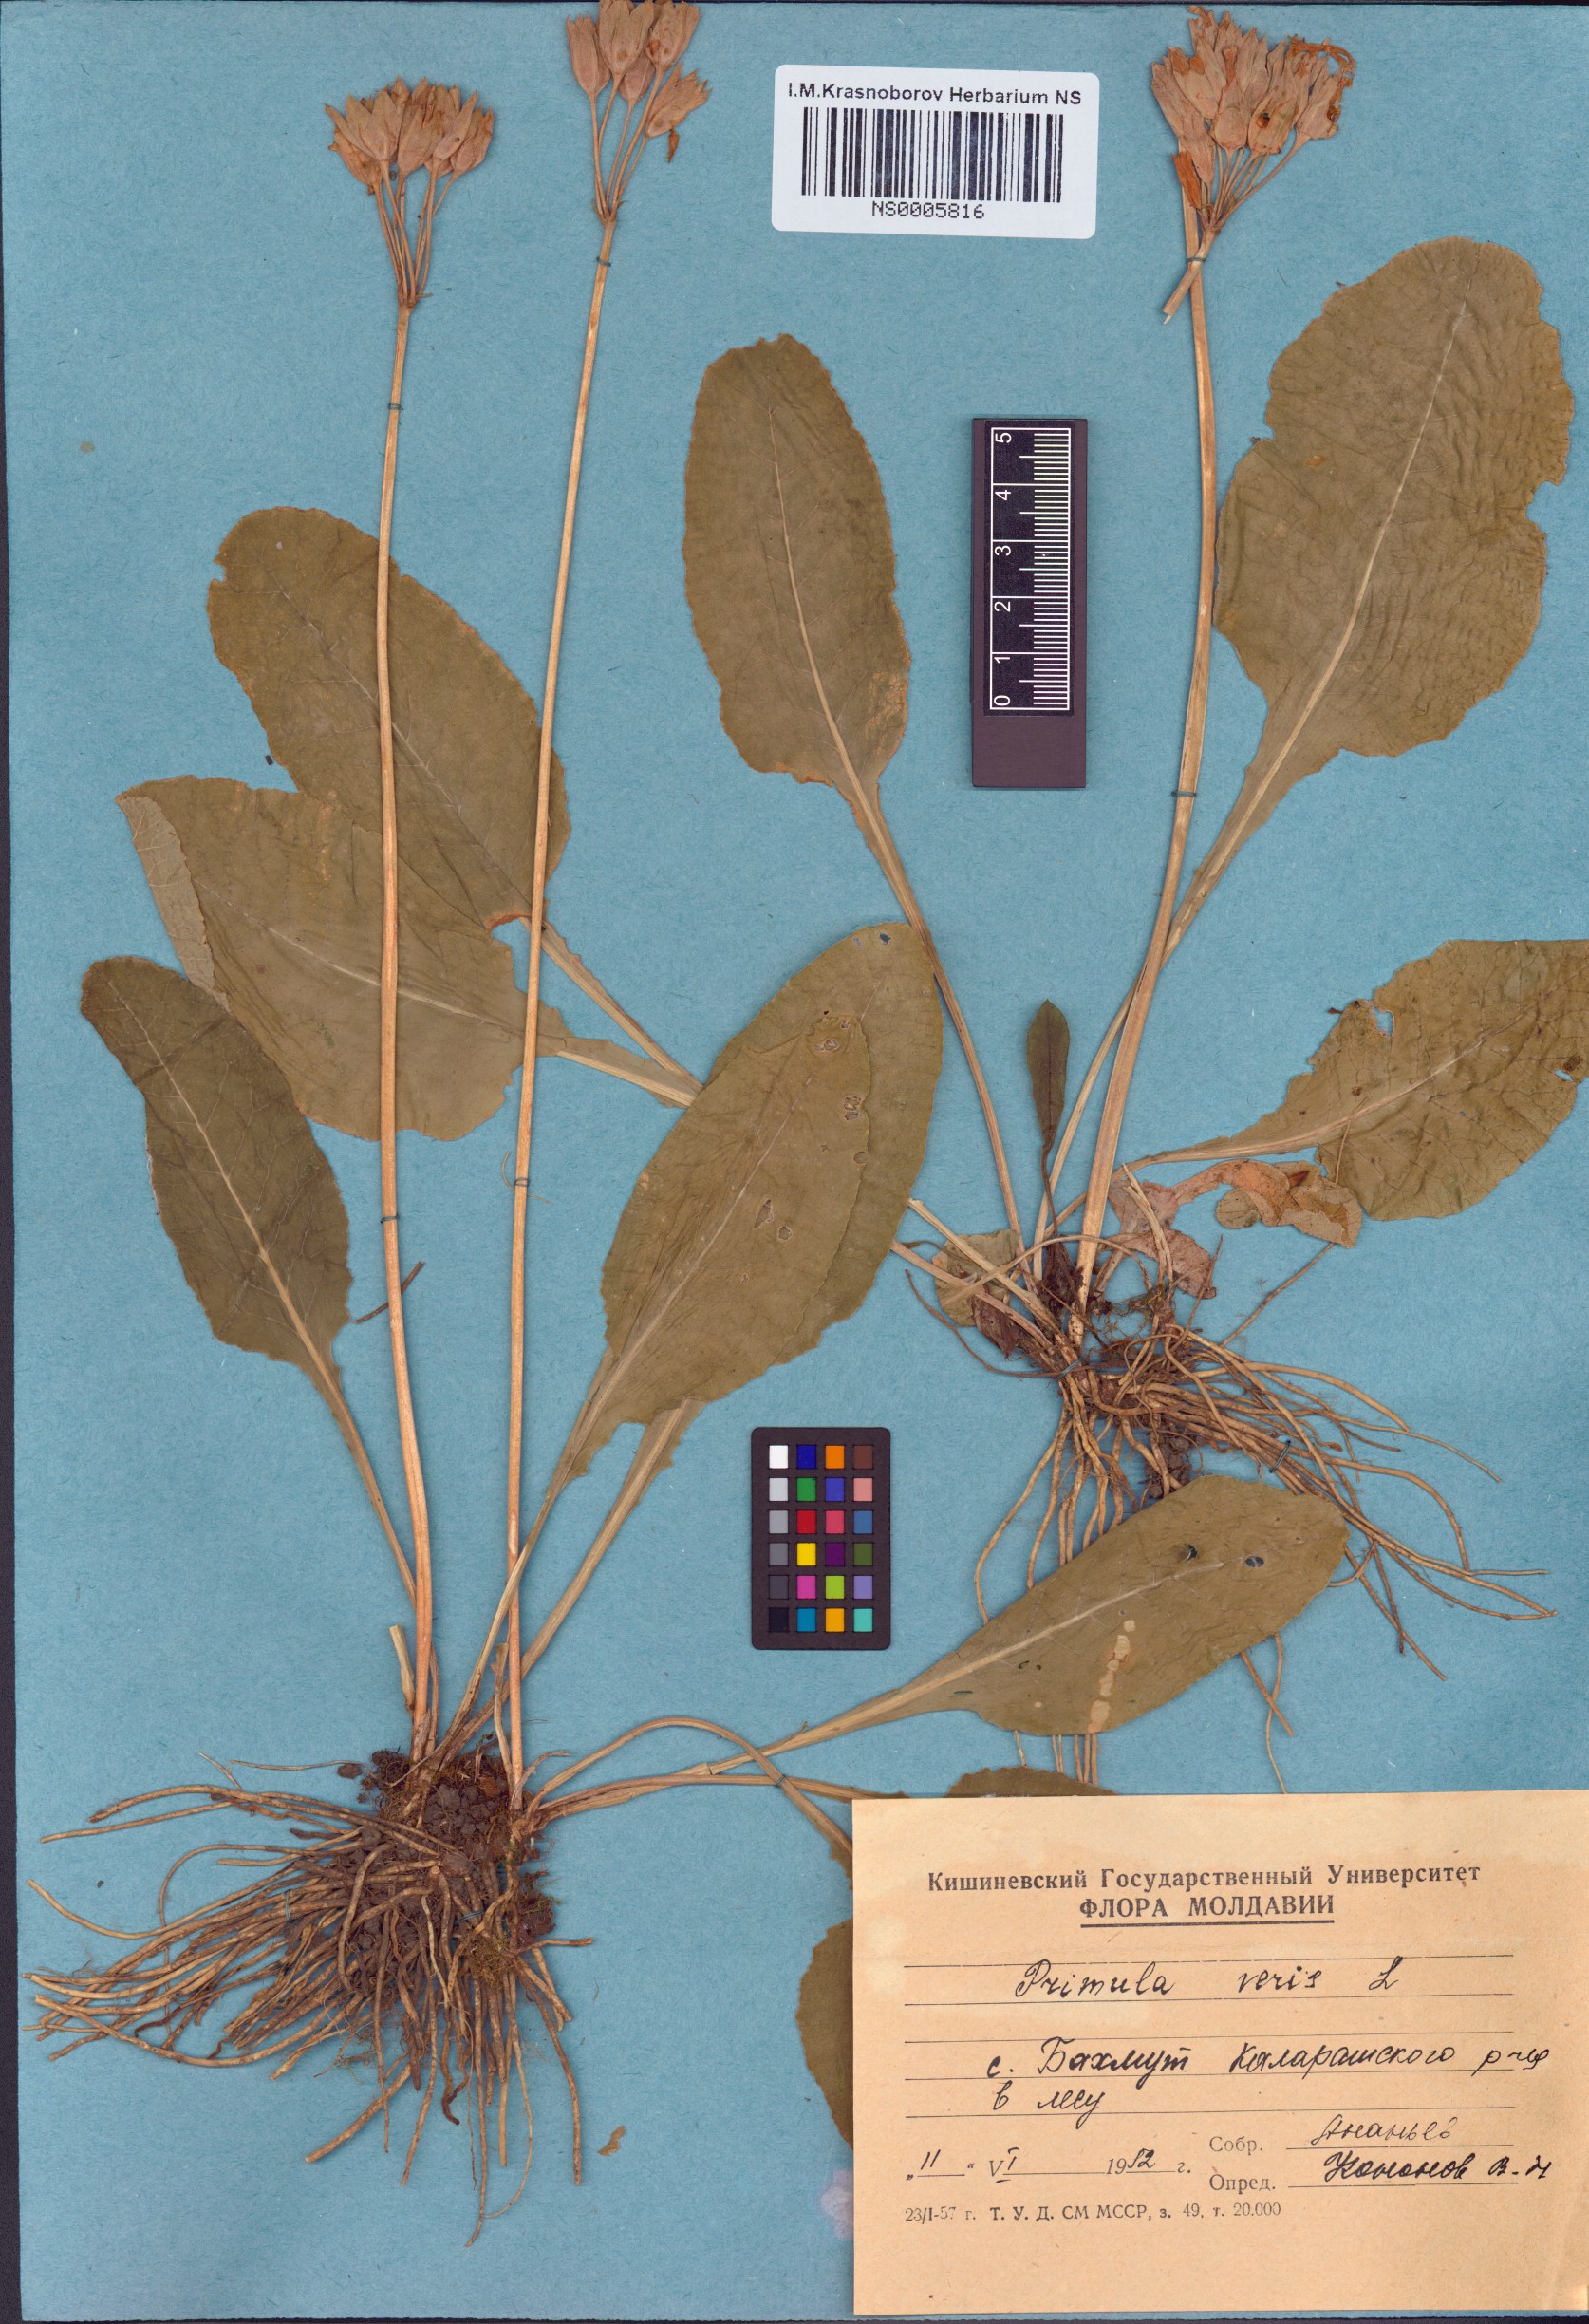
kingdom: Plantae
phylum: Tracheophyta
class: Magnoliopsida
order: Ericales
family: Primulaceae
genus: Primula
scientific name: Primula veris
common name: Cowslip
